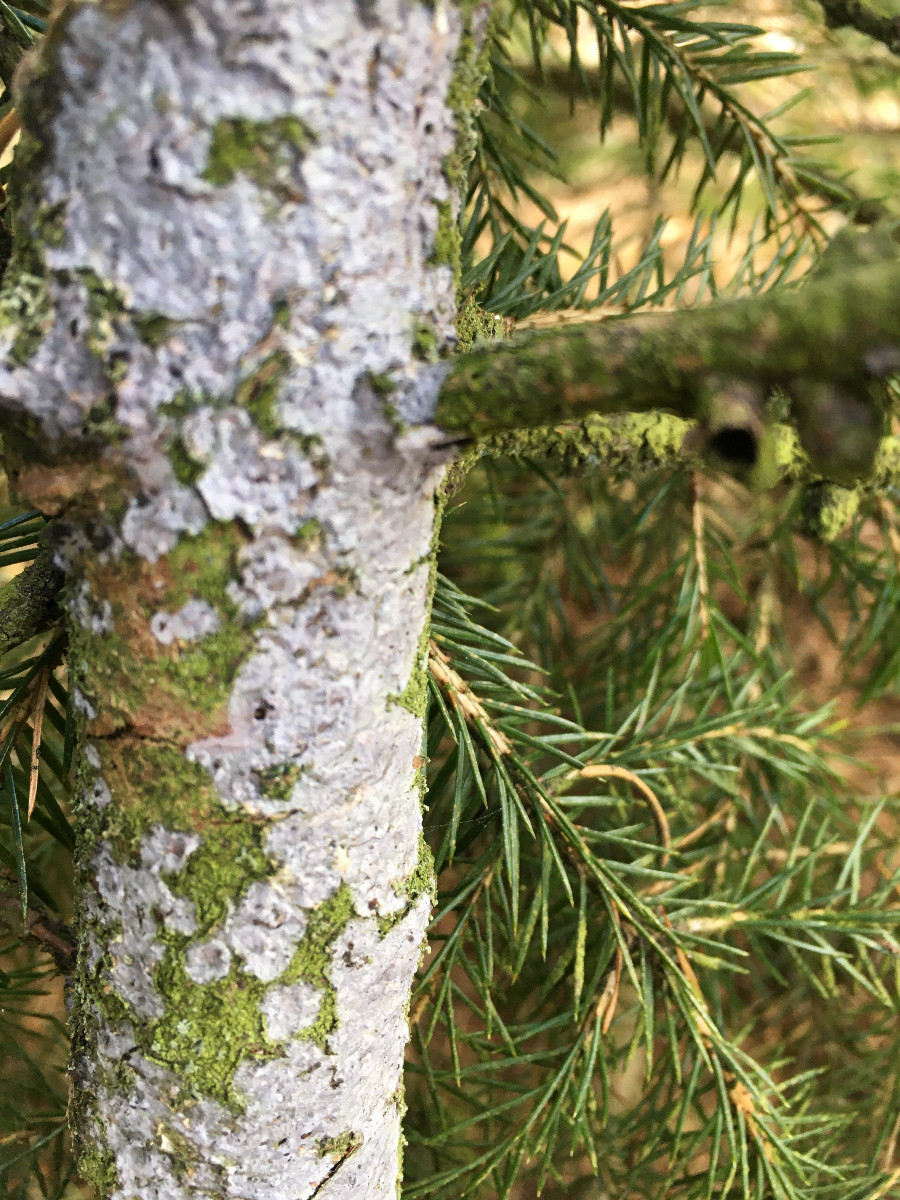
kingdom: Fungi
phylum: Basidiomycota
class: Agaricomycetes
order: Corticiales
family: Corticiaceae
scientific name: Corticiaceae
